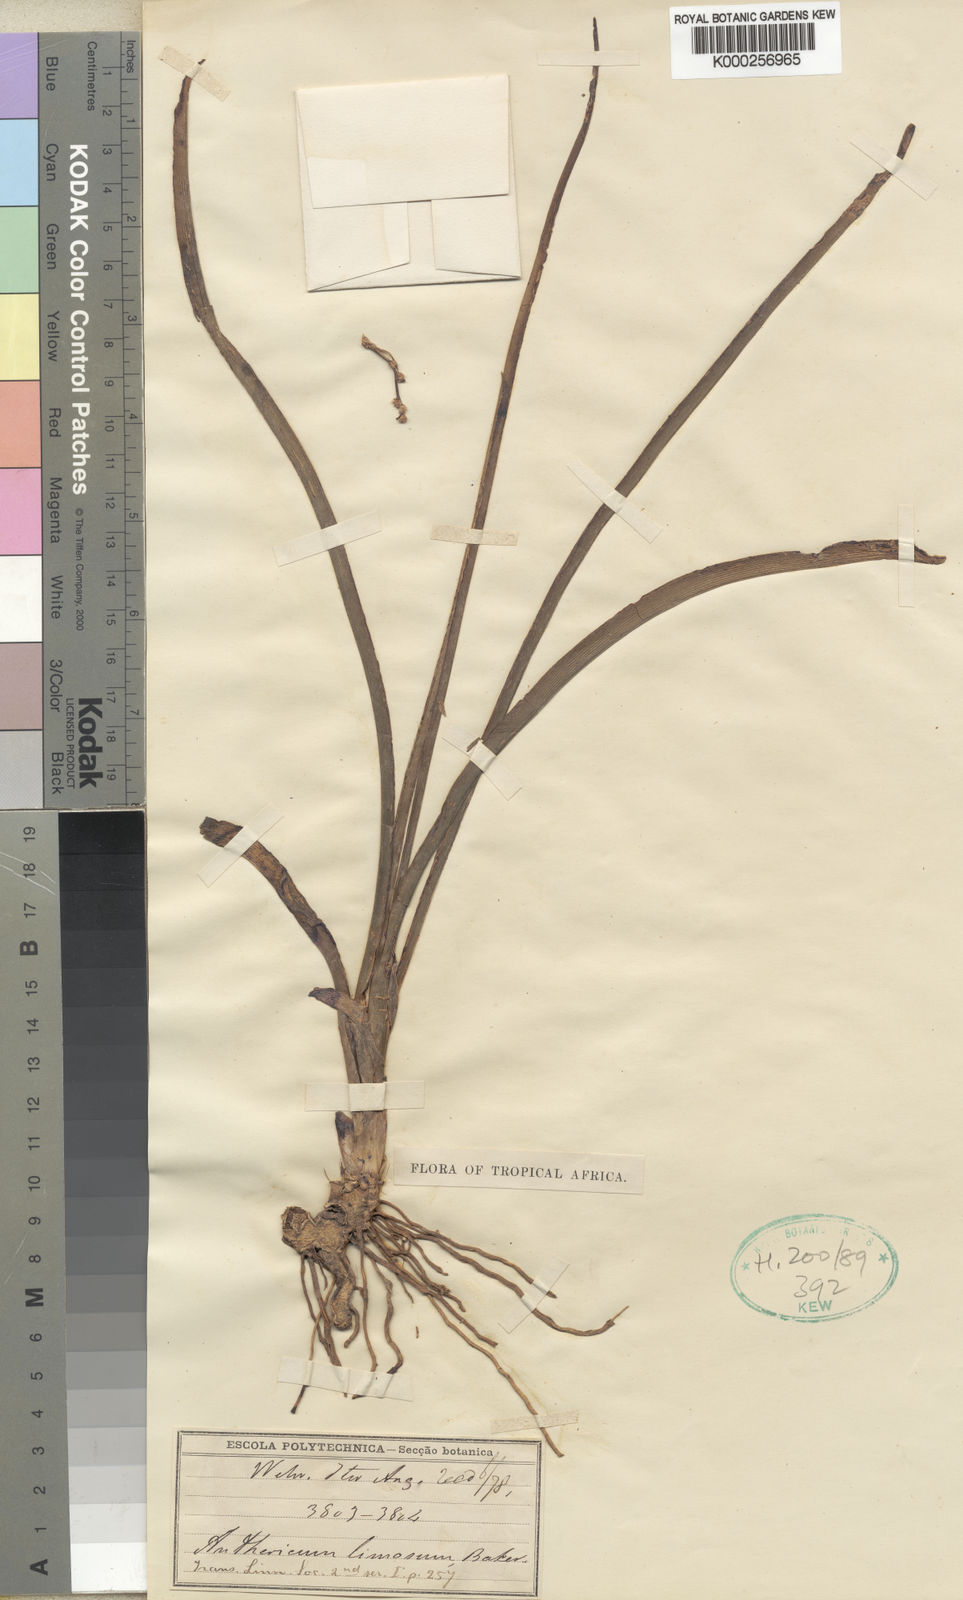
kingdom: Plantae
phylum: Tracheophyta
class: Liliopsida
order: Asparagales
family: Asparagaceae
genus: Chlorophytum
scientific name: Chlorophytum limosum
